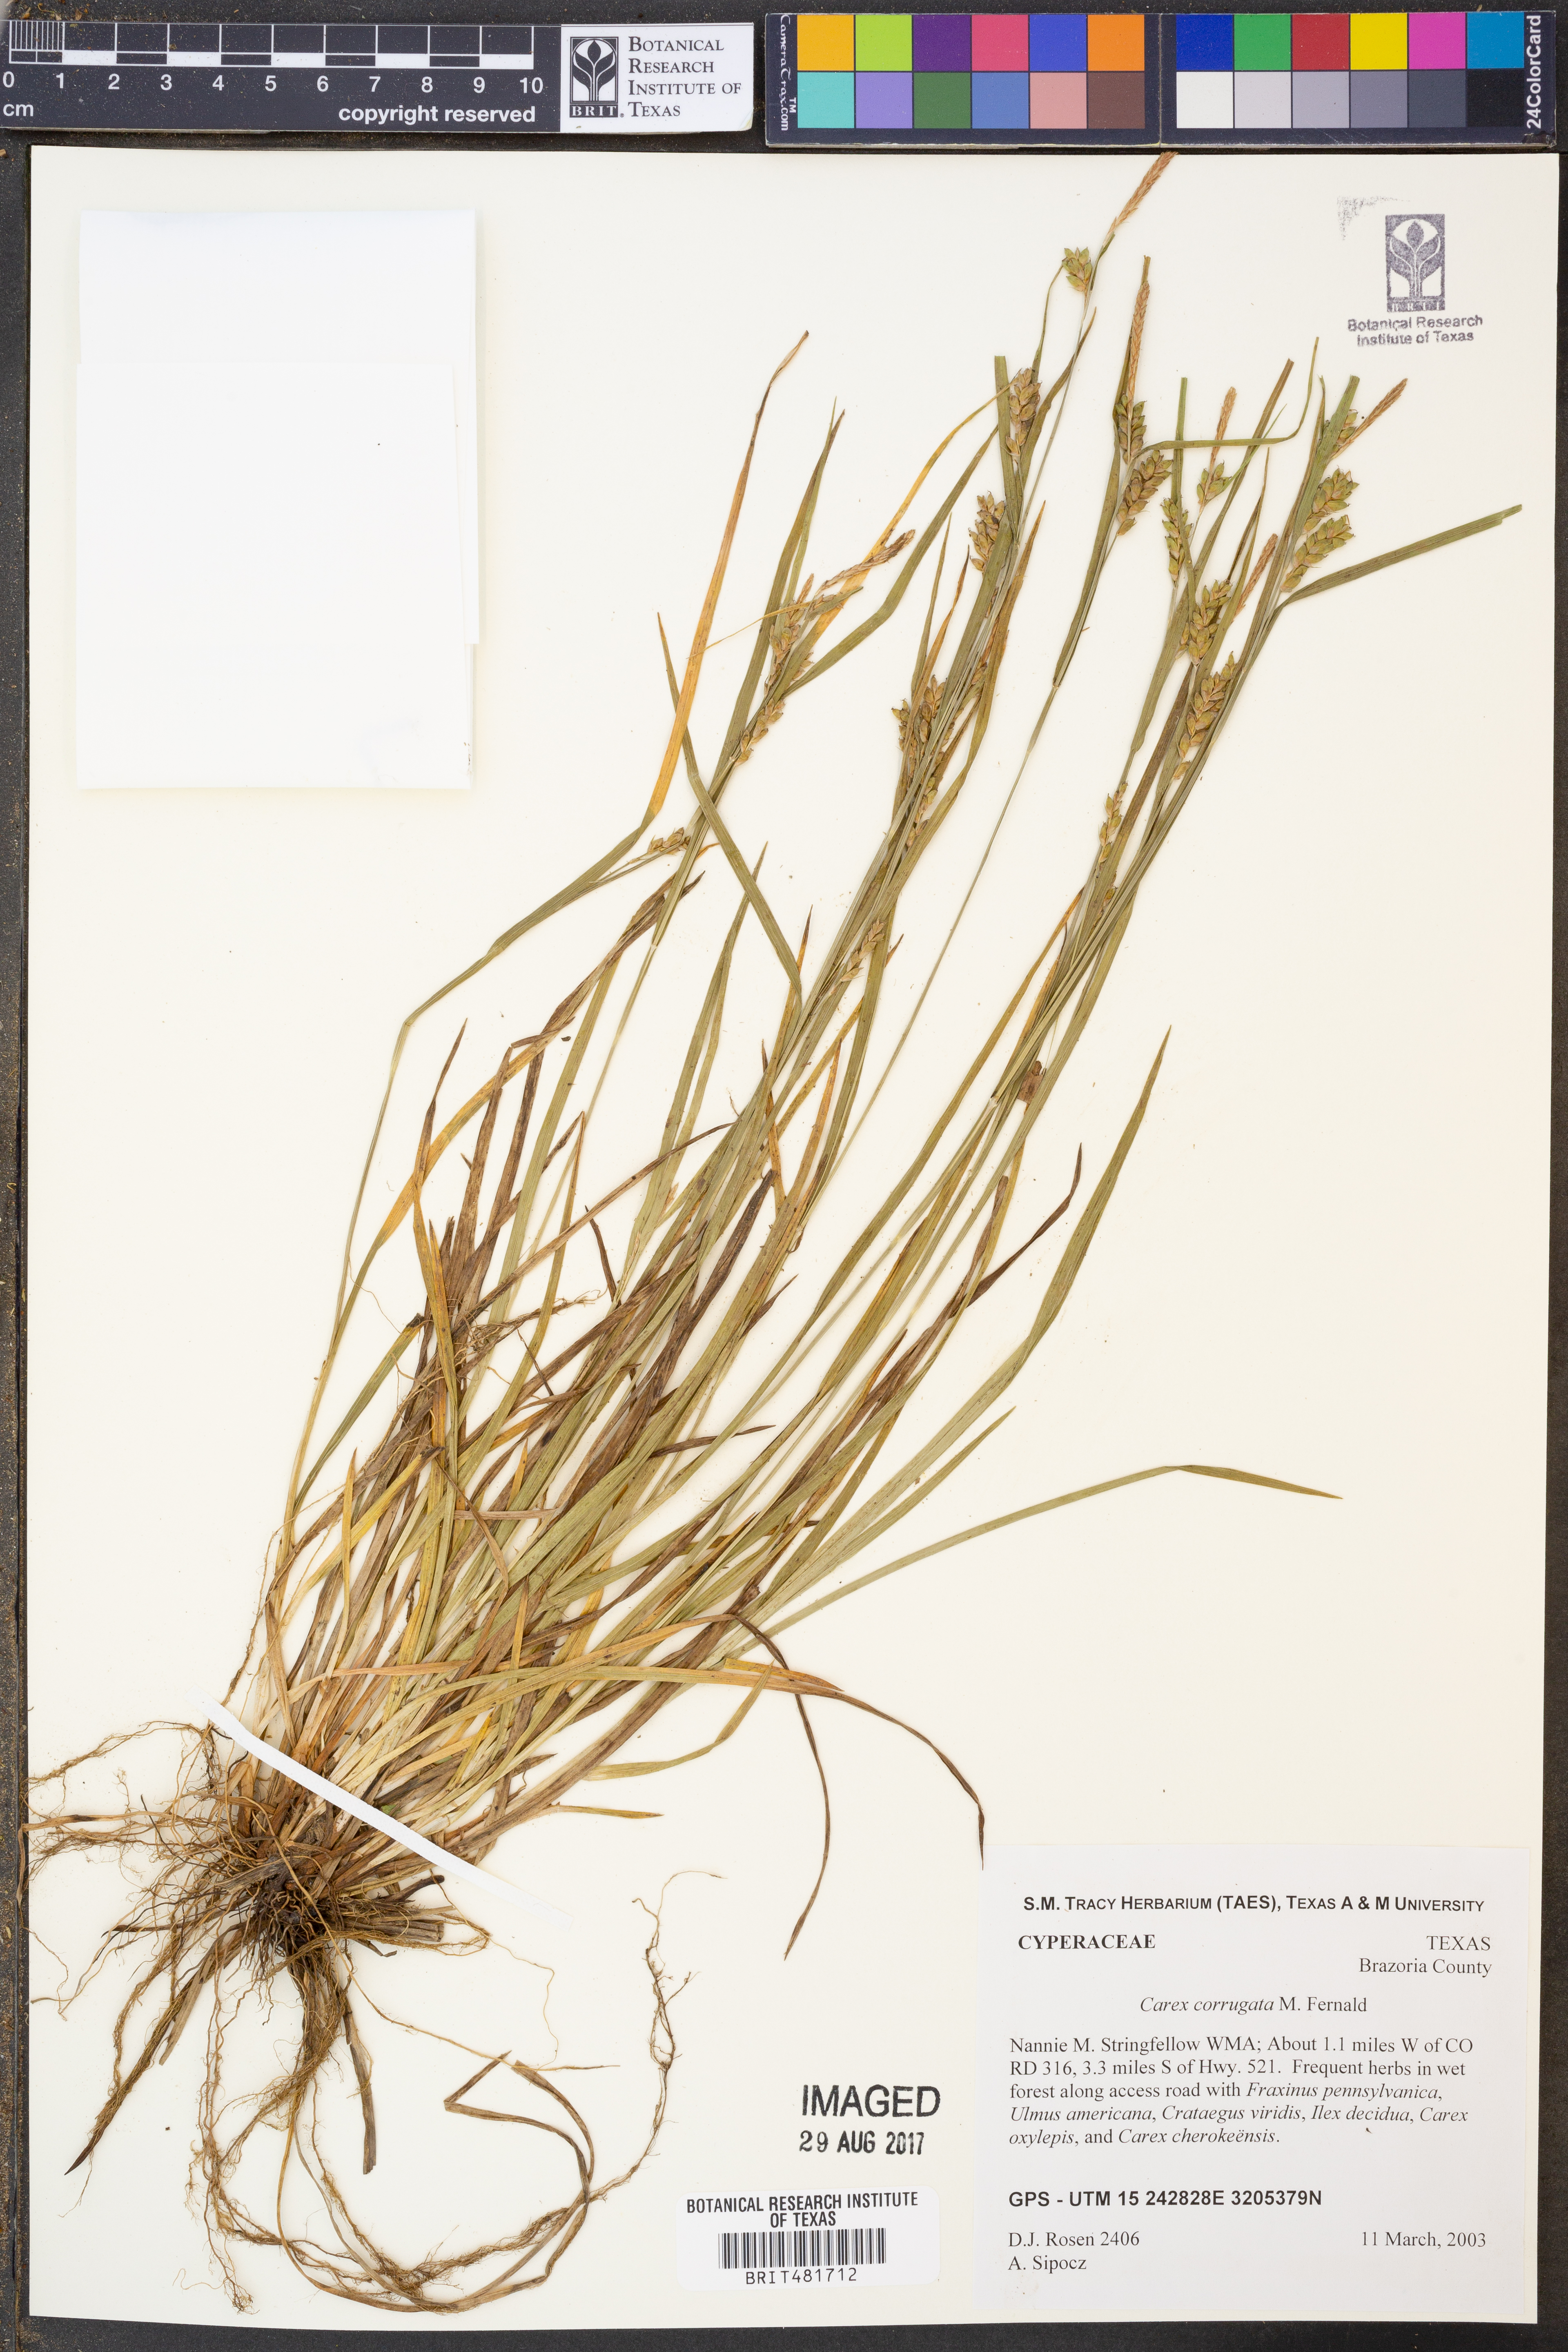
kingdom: Plantae
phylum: Tracheophyta
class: Liliopsida
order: Poales
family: Cyperaceae
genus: Carex
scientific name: Carex corrugata
